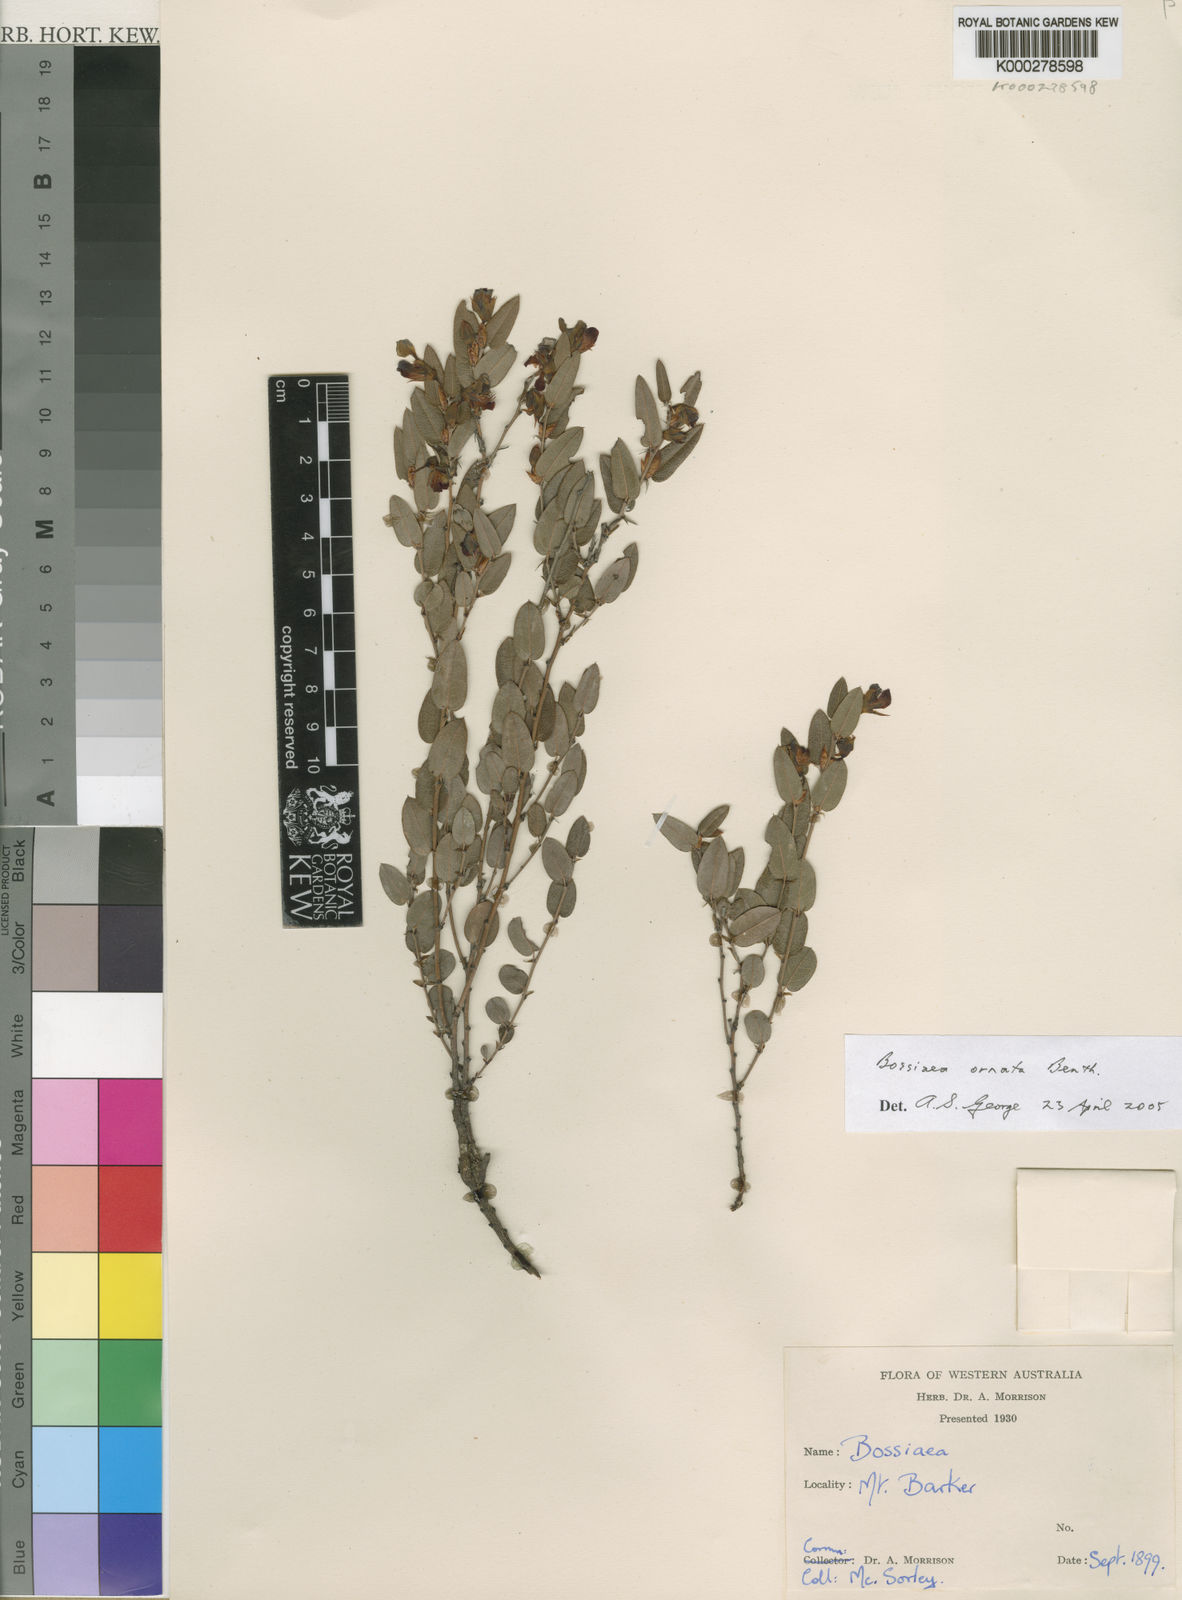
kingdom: Plantae
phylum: Tracheophyta
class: Magnoliopsida
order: Fabales
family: Fabaceae
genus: Bossiaea
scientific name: Bossiaea ornata
